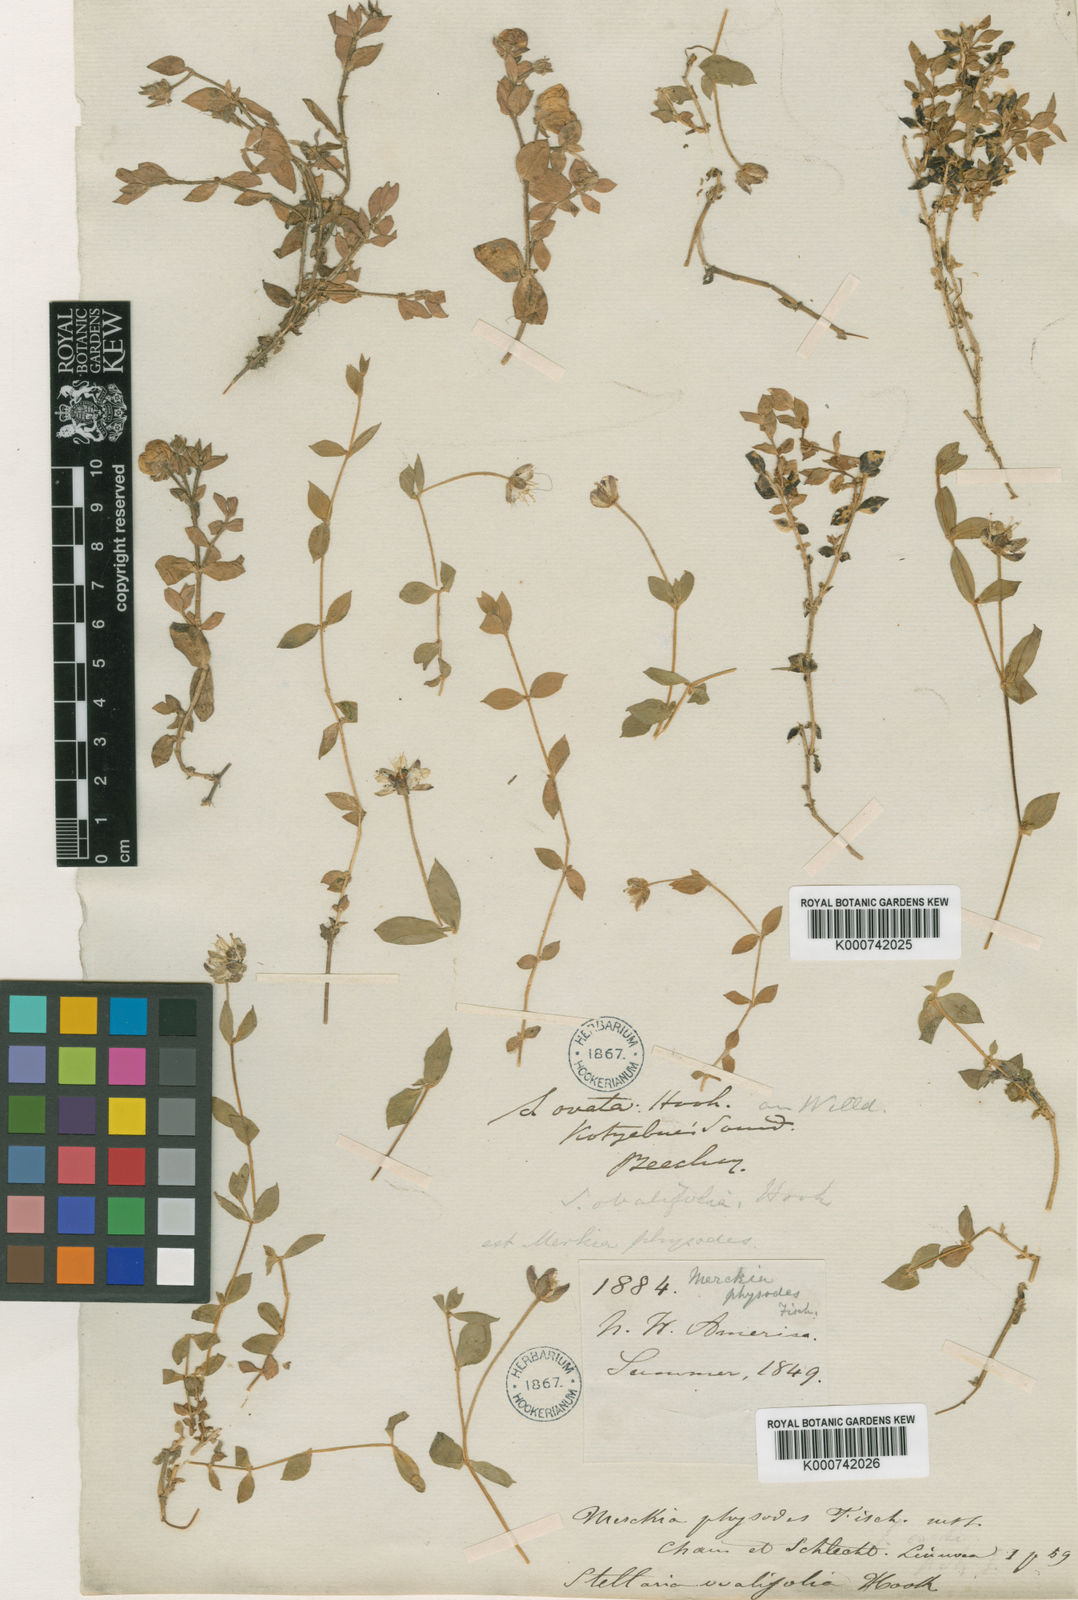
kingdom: Plantae
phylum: Tracheophyta
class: Magnoliopsida
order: Caryophyllales
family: Caryophyllaceae
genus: Wilhelmsia
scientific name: Wilhelmsia physodes
